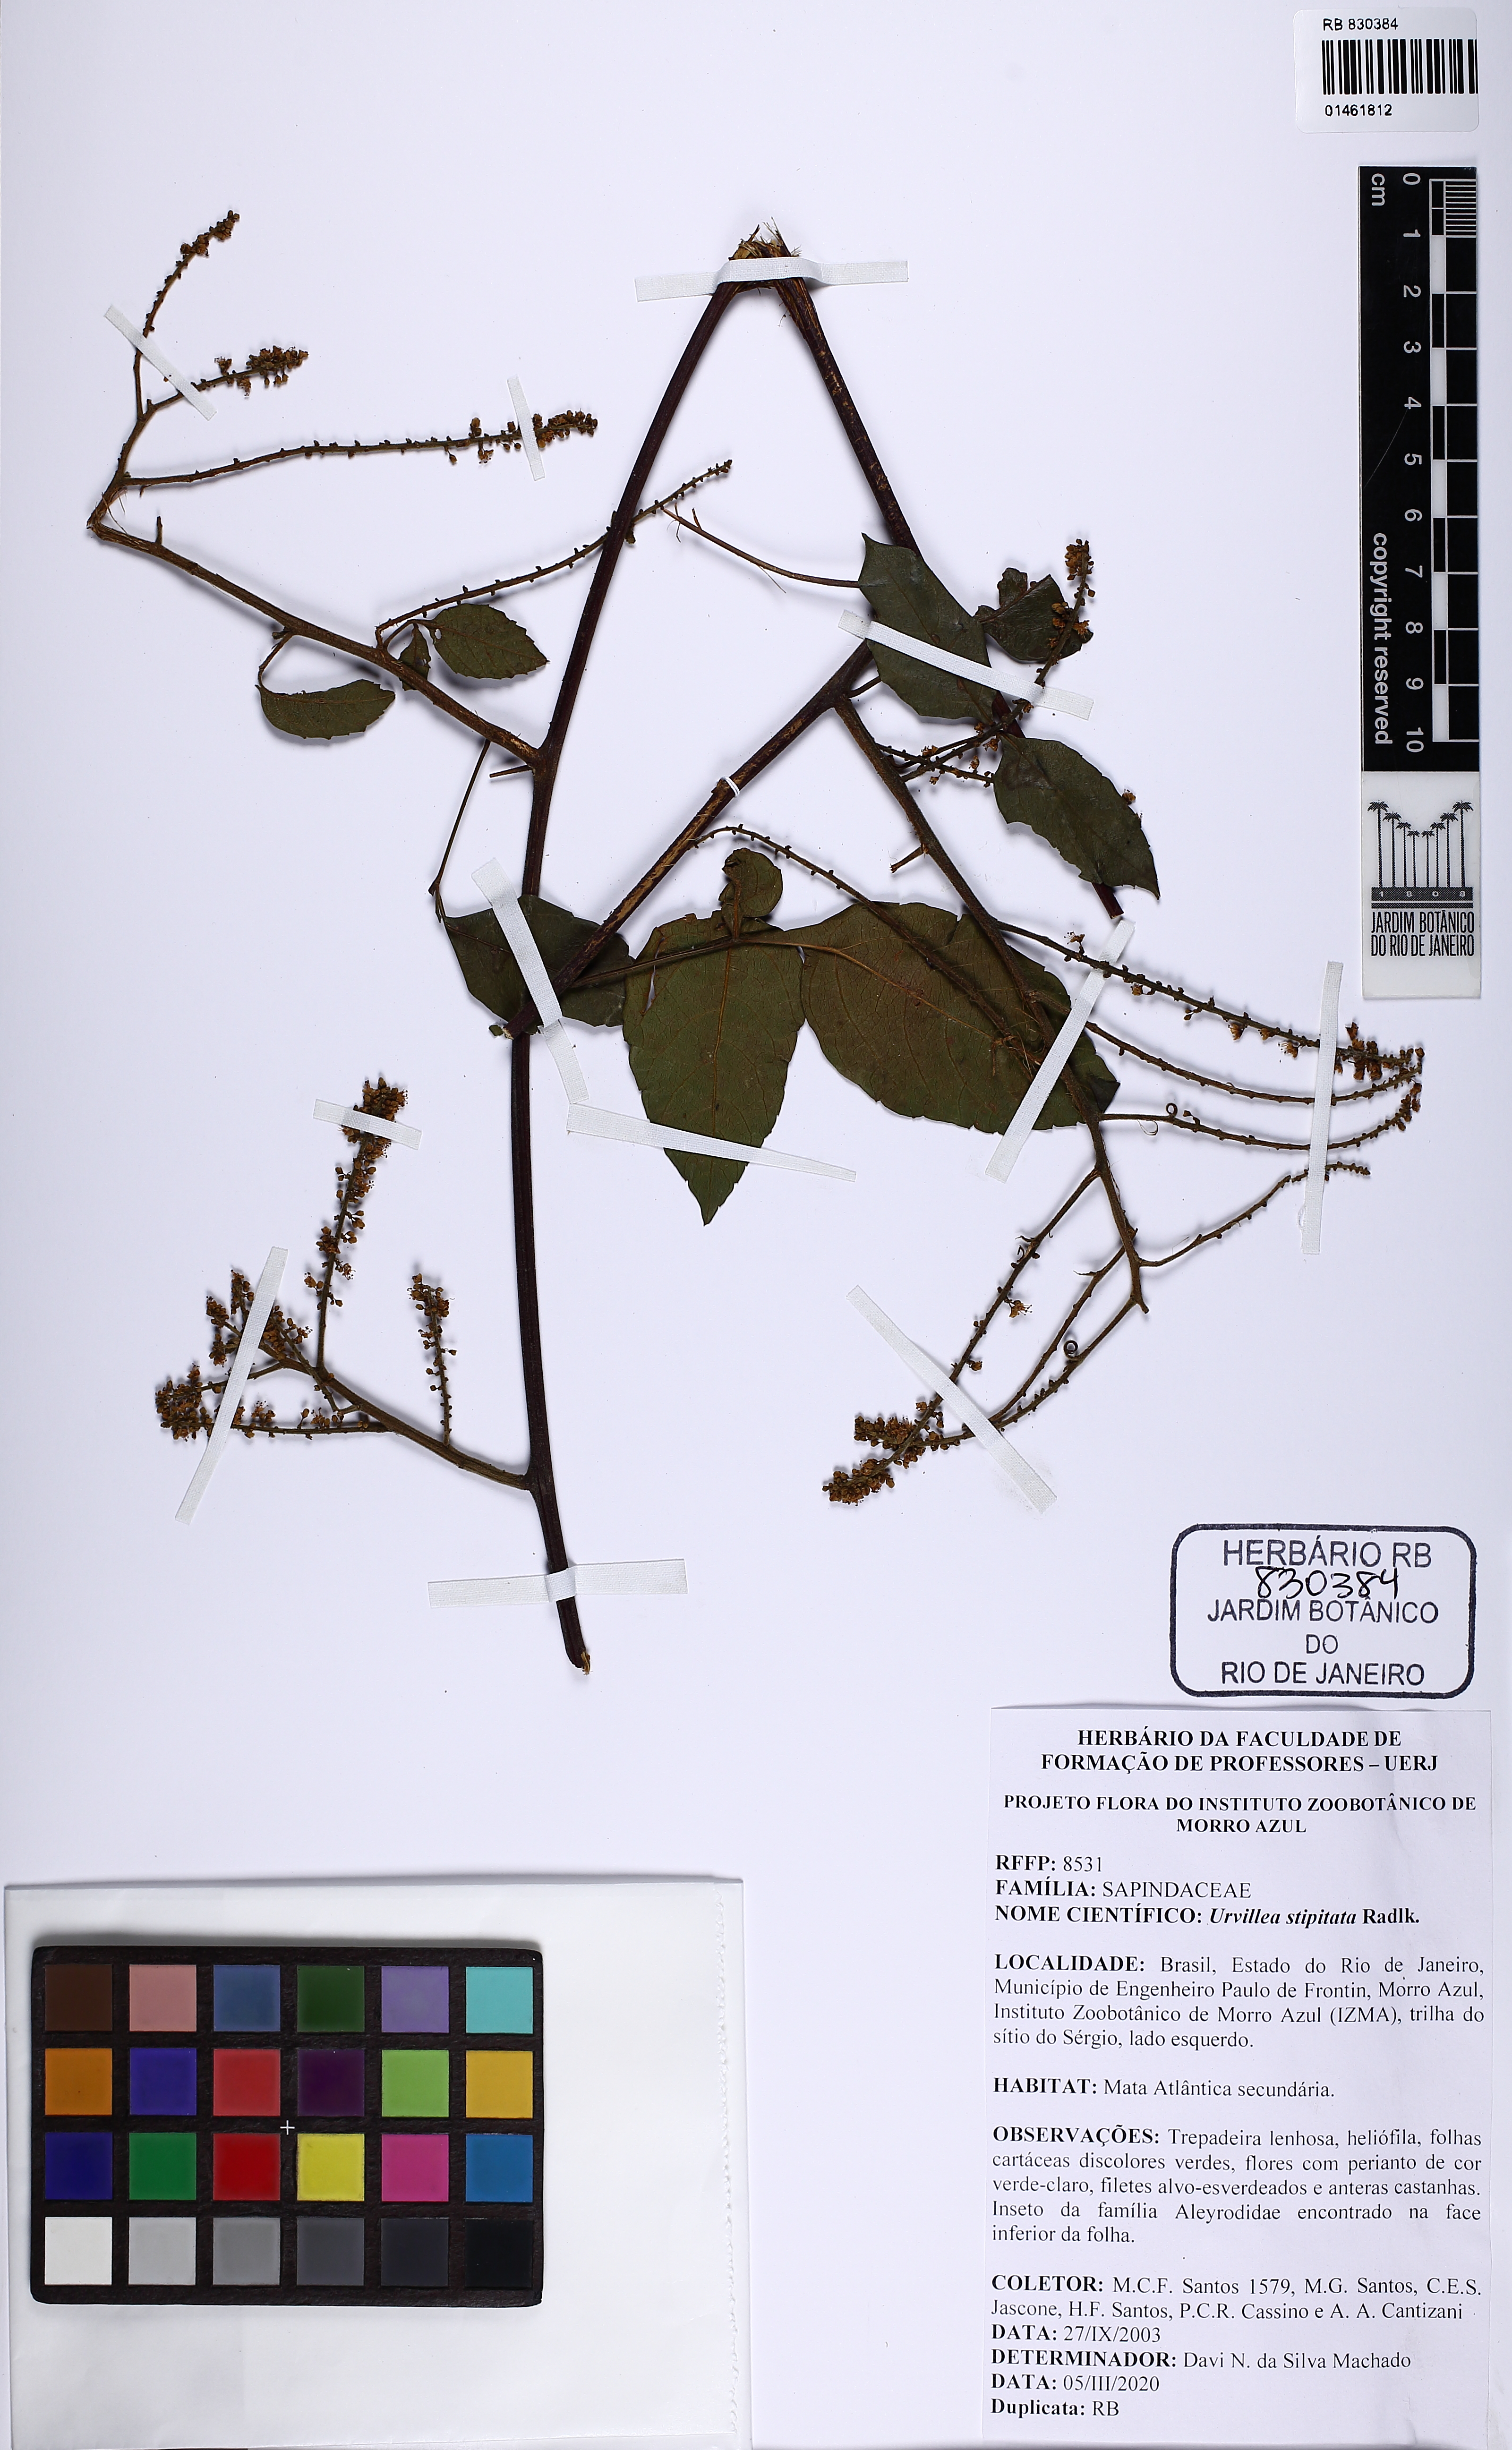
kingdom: Plantae
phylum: Tracheophyta
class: Magnoliopsida
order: Sapindales
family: Sapindaceae
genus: Urvillea
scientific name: Urvillea stipitata
